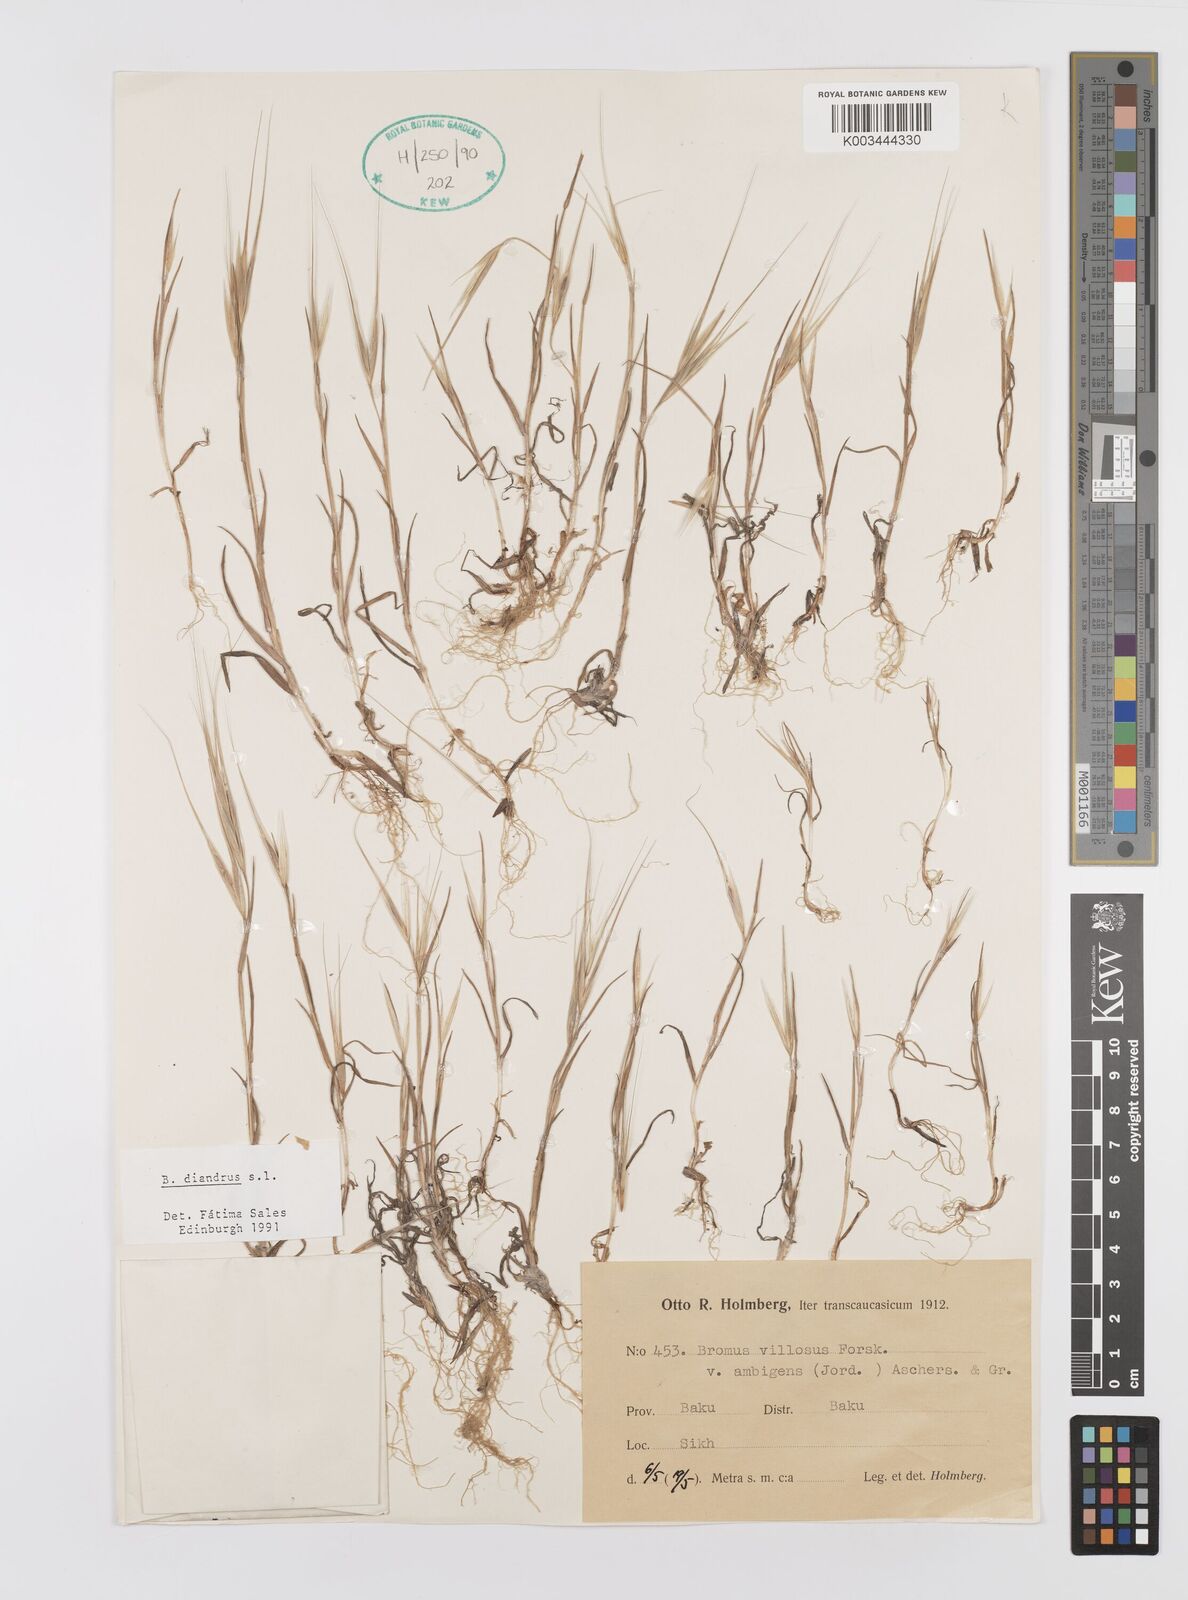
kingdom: Plantae
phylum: Tracheophyta
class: Liliopsida
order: Poales
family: Poaceae
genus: Bromus
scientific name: Bromus diandrus
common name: Ripgut brome
